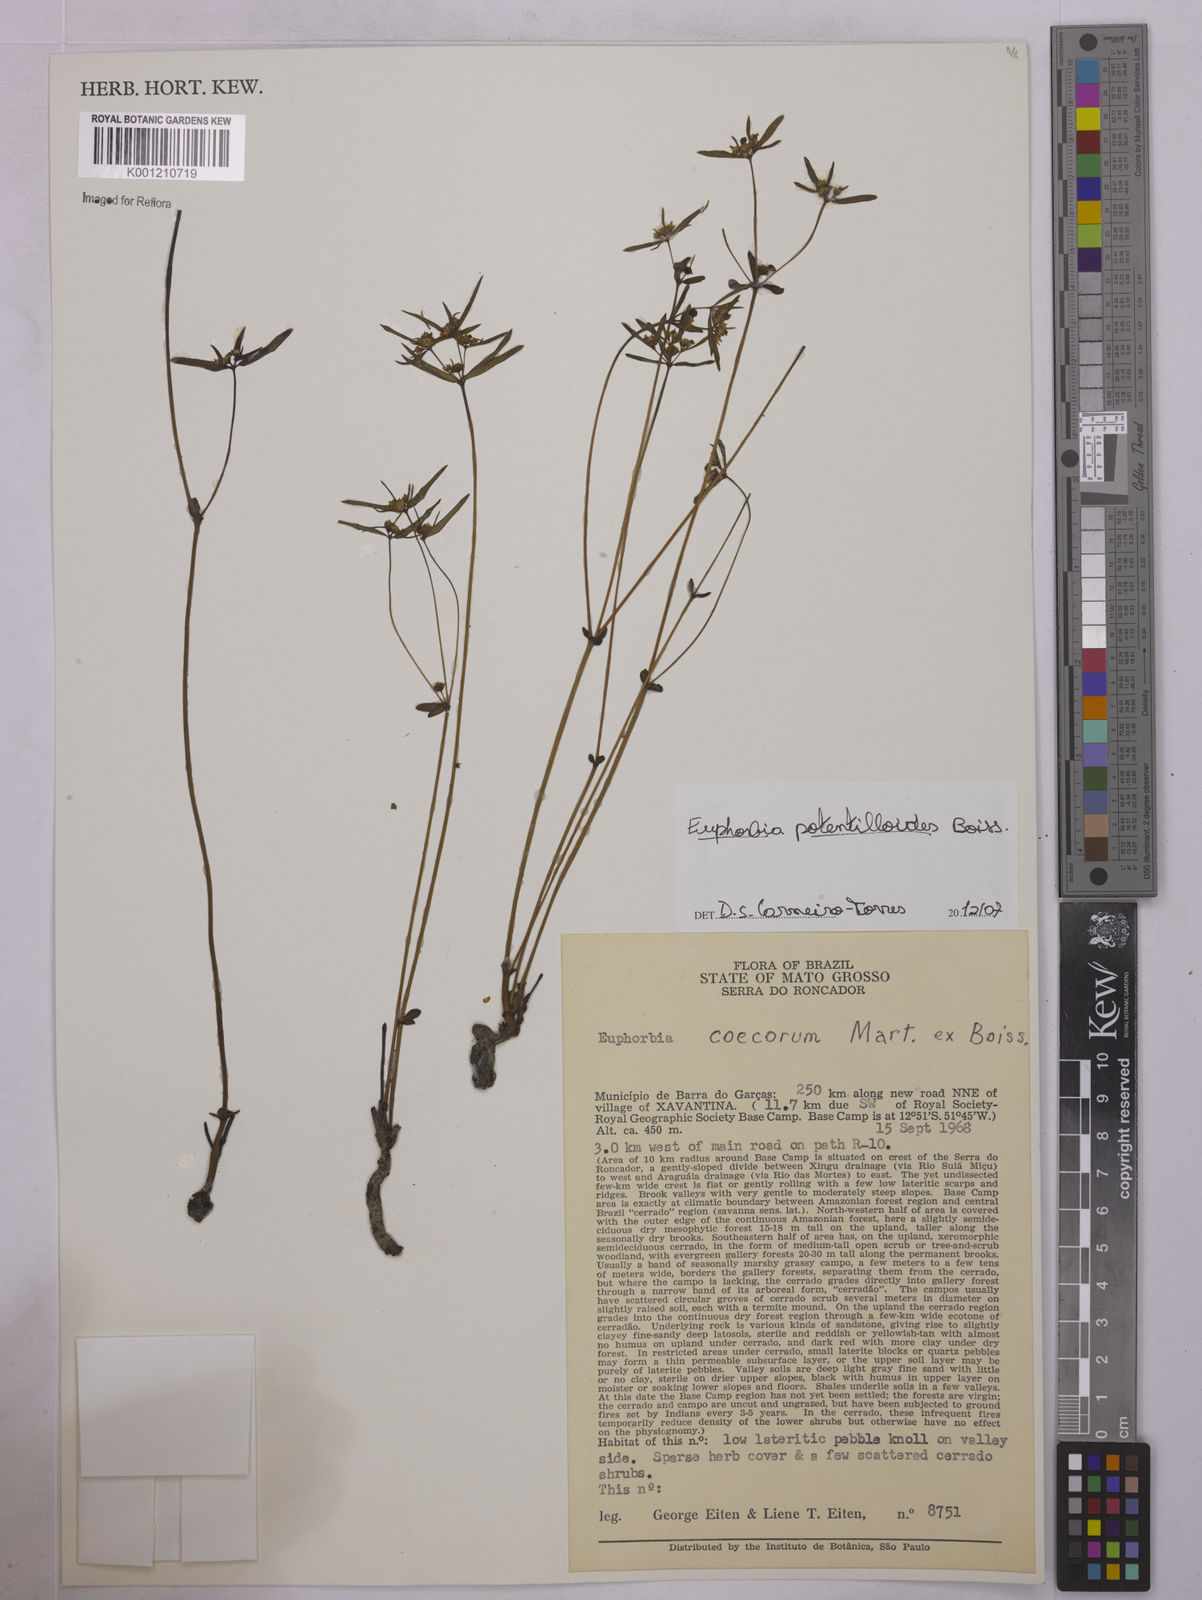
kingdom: Plantae
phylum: Tracheophyta
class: Magnoliopsida
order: Malpighiales
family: Euphorbiaceae
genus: Euphorbia
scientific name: Euphorbia potentilloides
